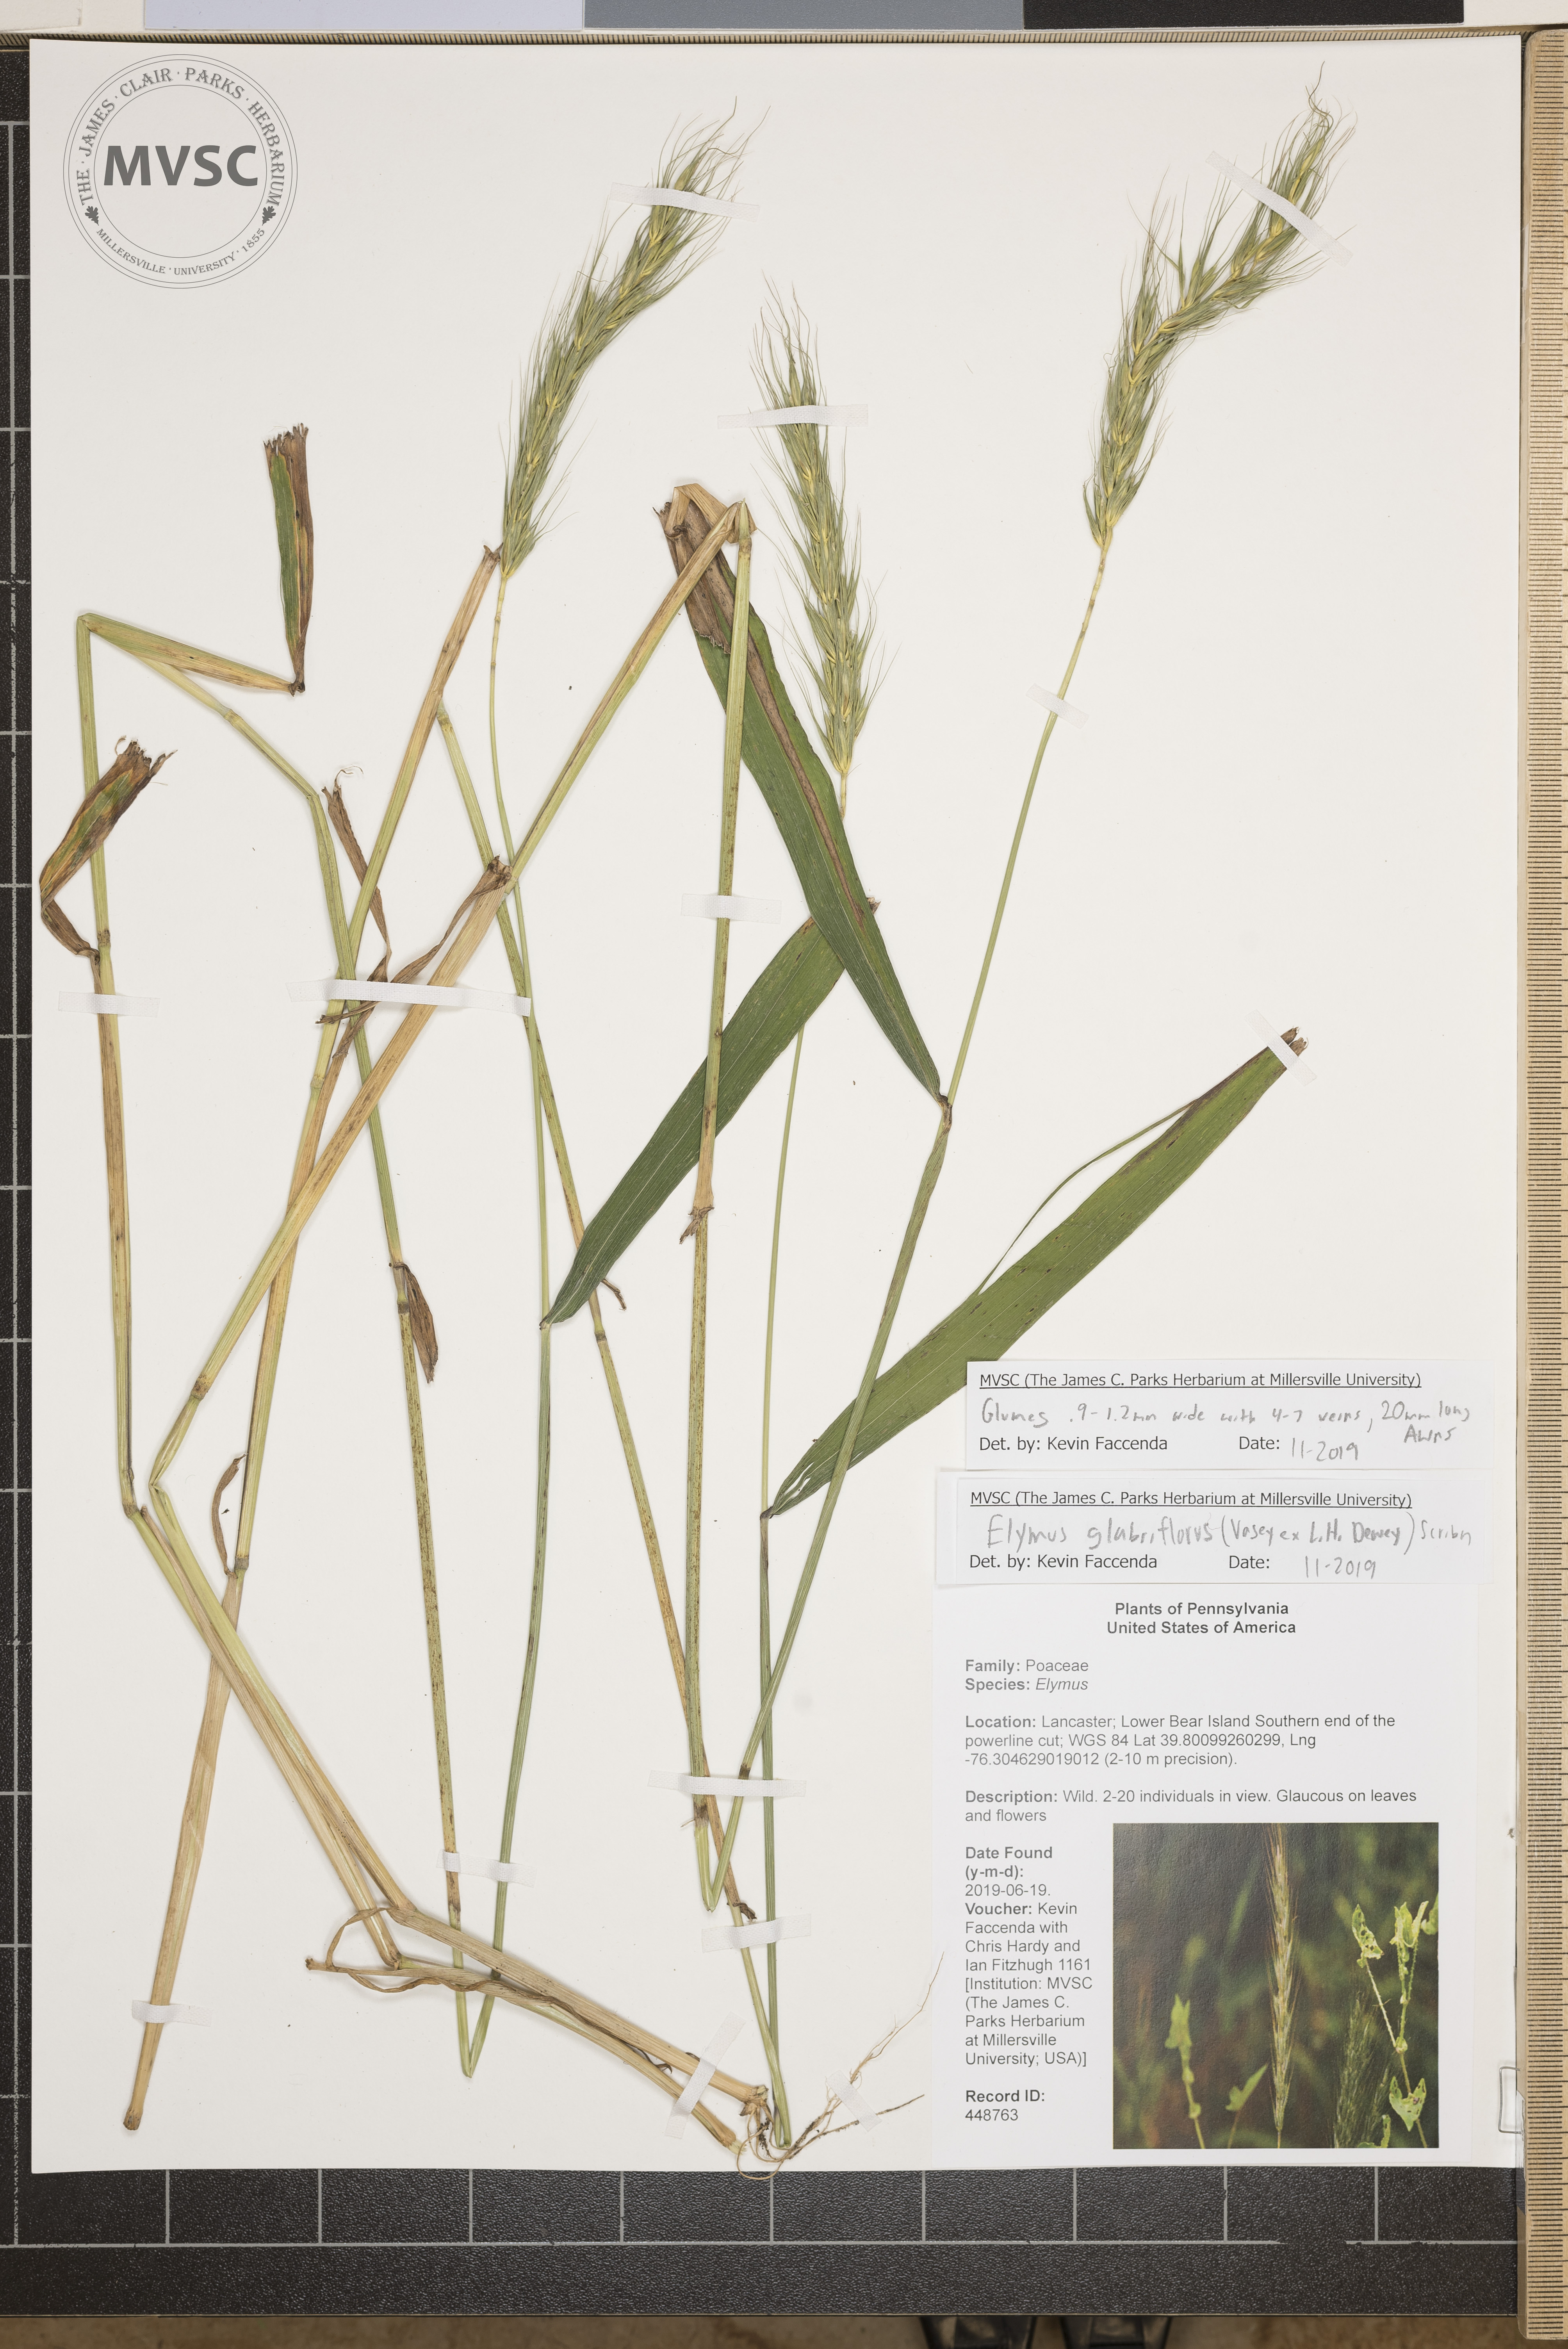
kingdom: Plantae
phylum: Tracheophyta
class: Liliopsida
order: Poales
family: Poaceae
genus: Elymus
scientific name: Elymus virginicus
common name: Common eastern wildrye
